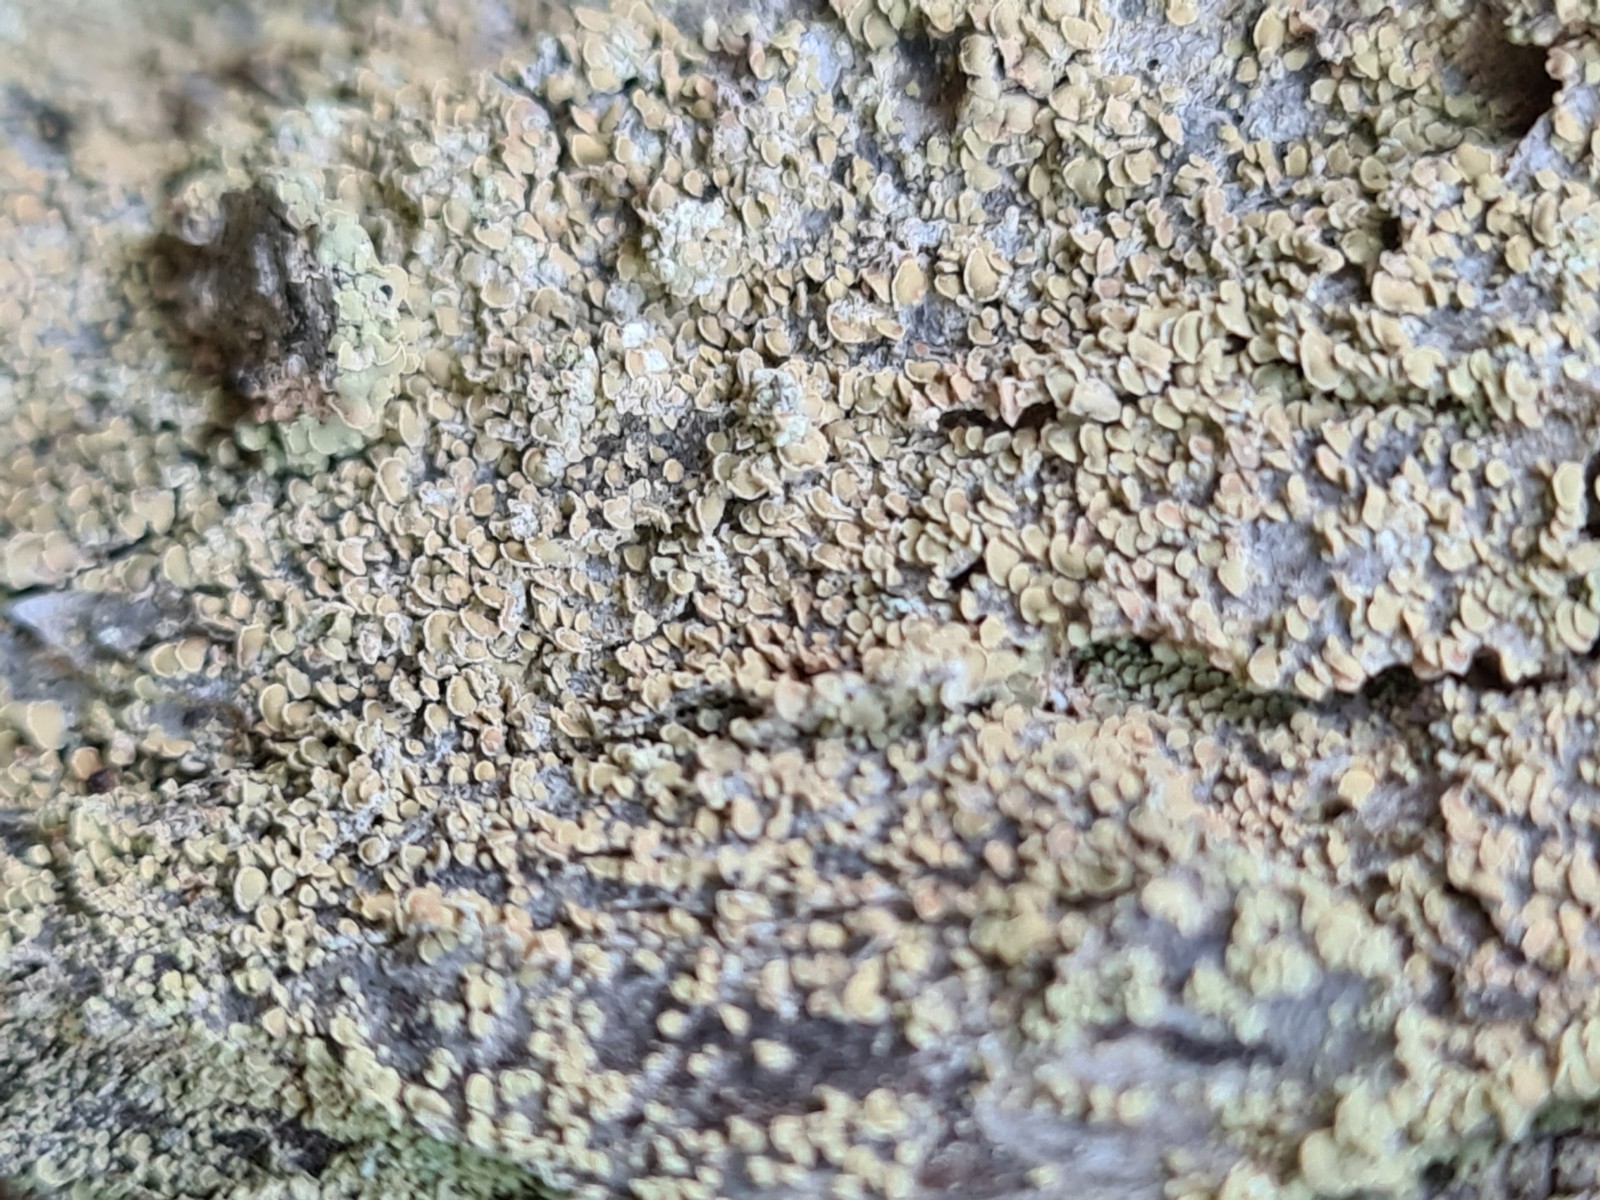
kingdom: Fungi
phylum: Ascomycota
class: Lecanoromycetes
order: Umbilicariales
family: Ophioparmaceae
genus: Hypocenomyce
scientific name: Hypocenomyce scalaris
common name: småskællet muslinglav
